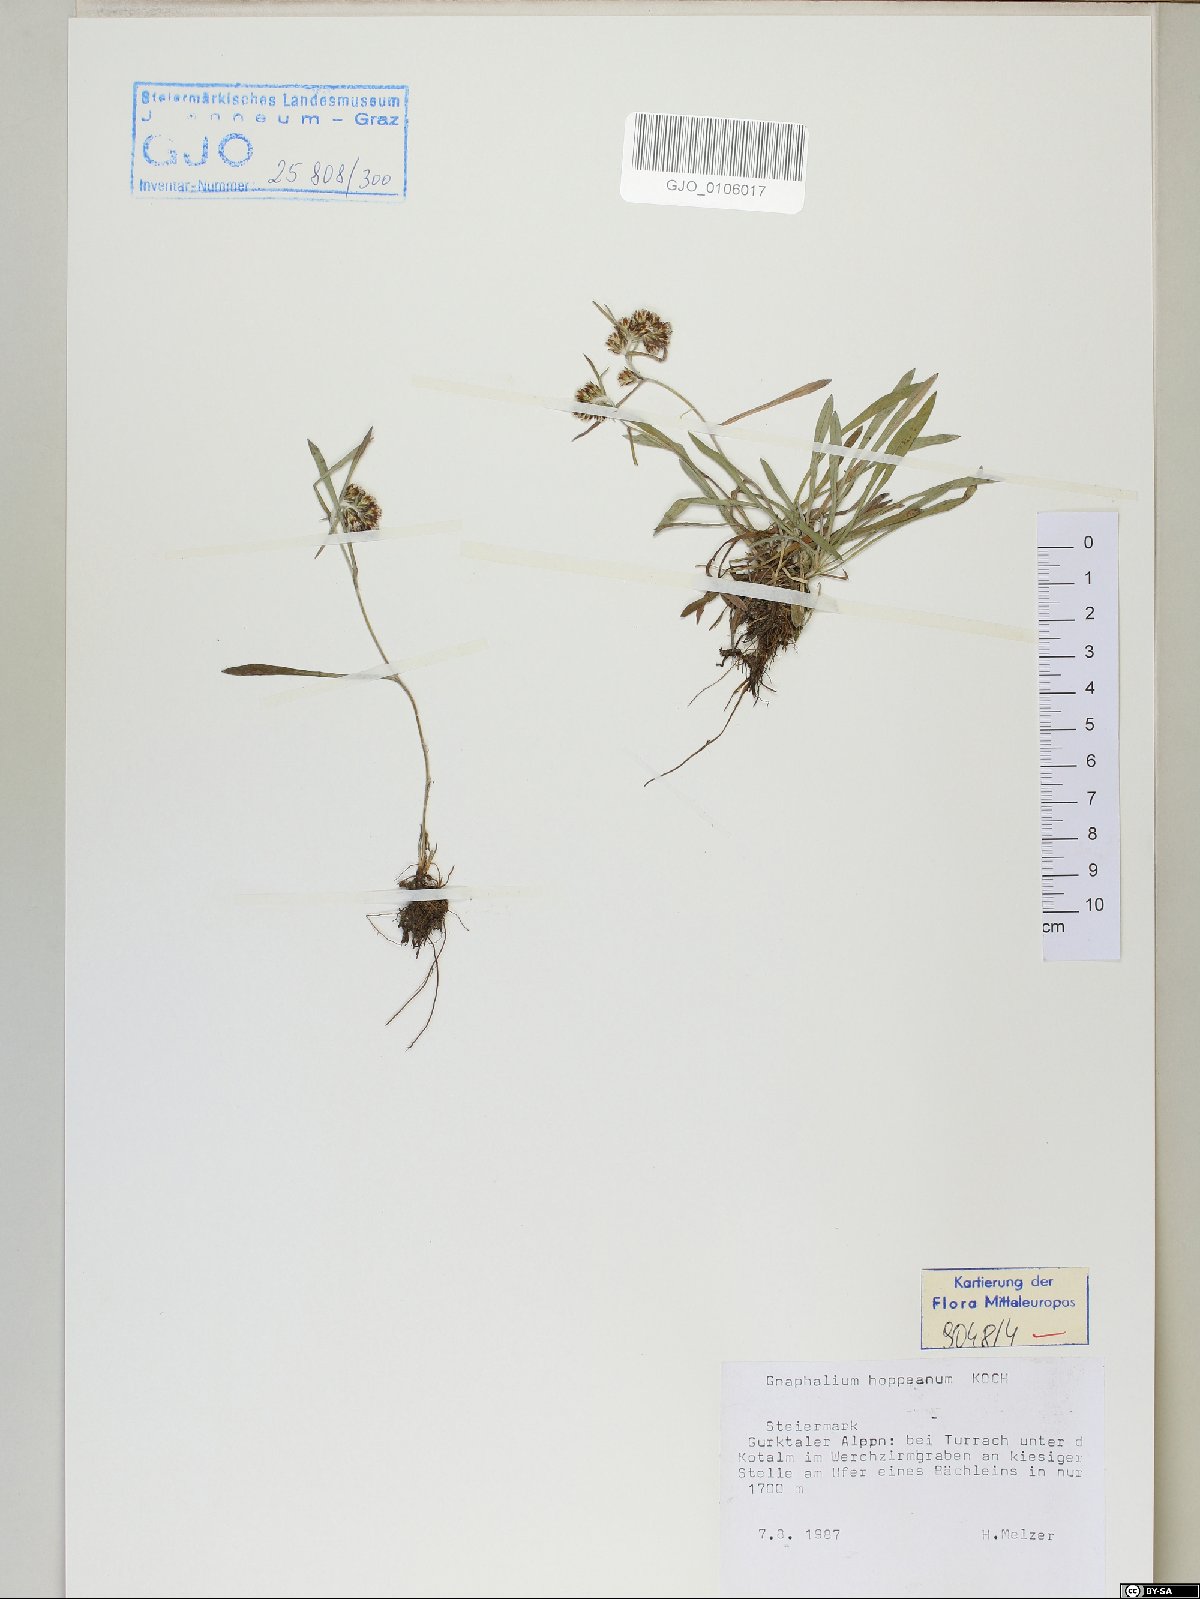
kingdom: Plantae
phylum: Tracheophyta
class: Magnoliopsida
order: Asterales
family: Asteraceae
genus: Omalotheca
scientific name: Omalotheca hoppeana
